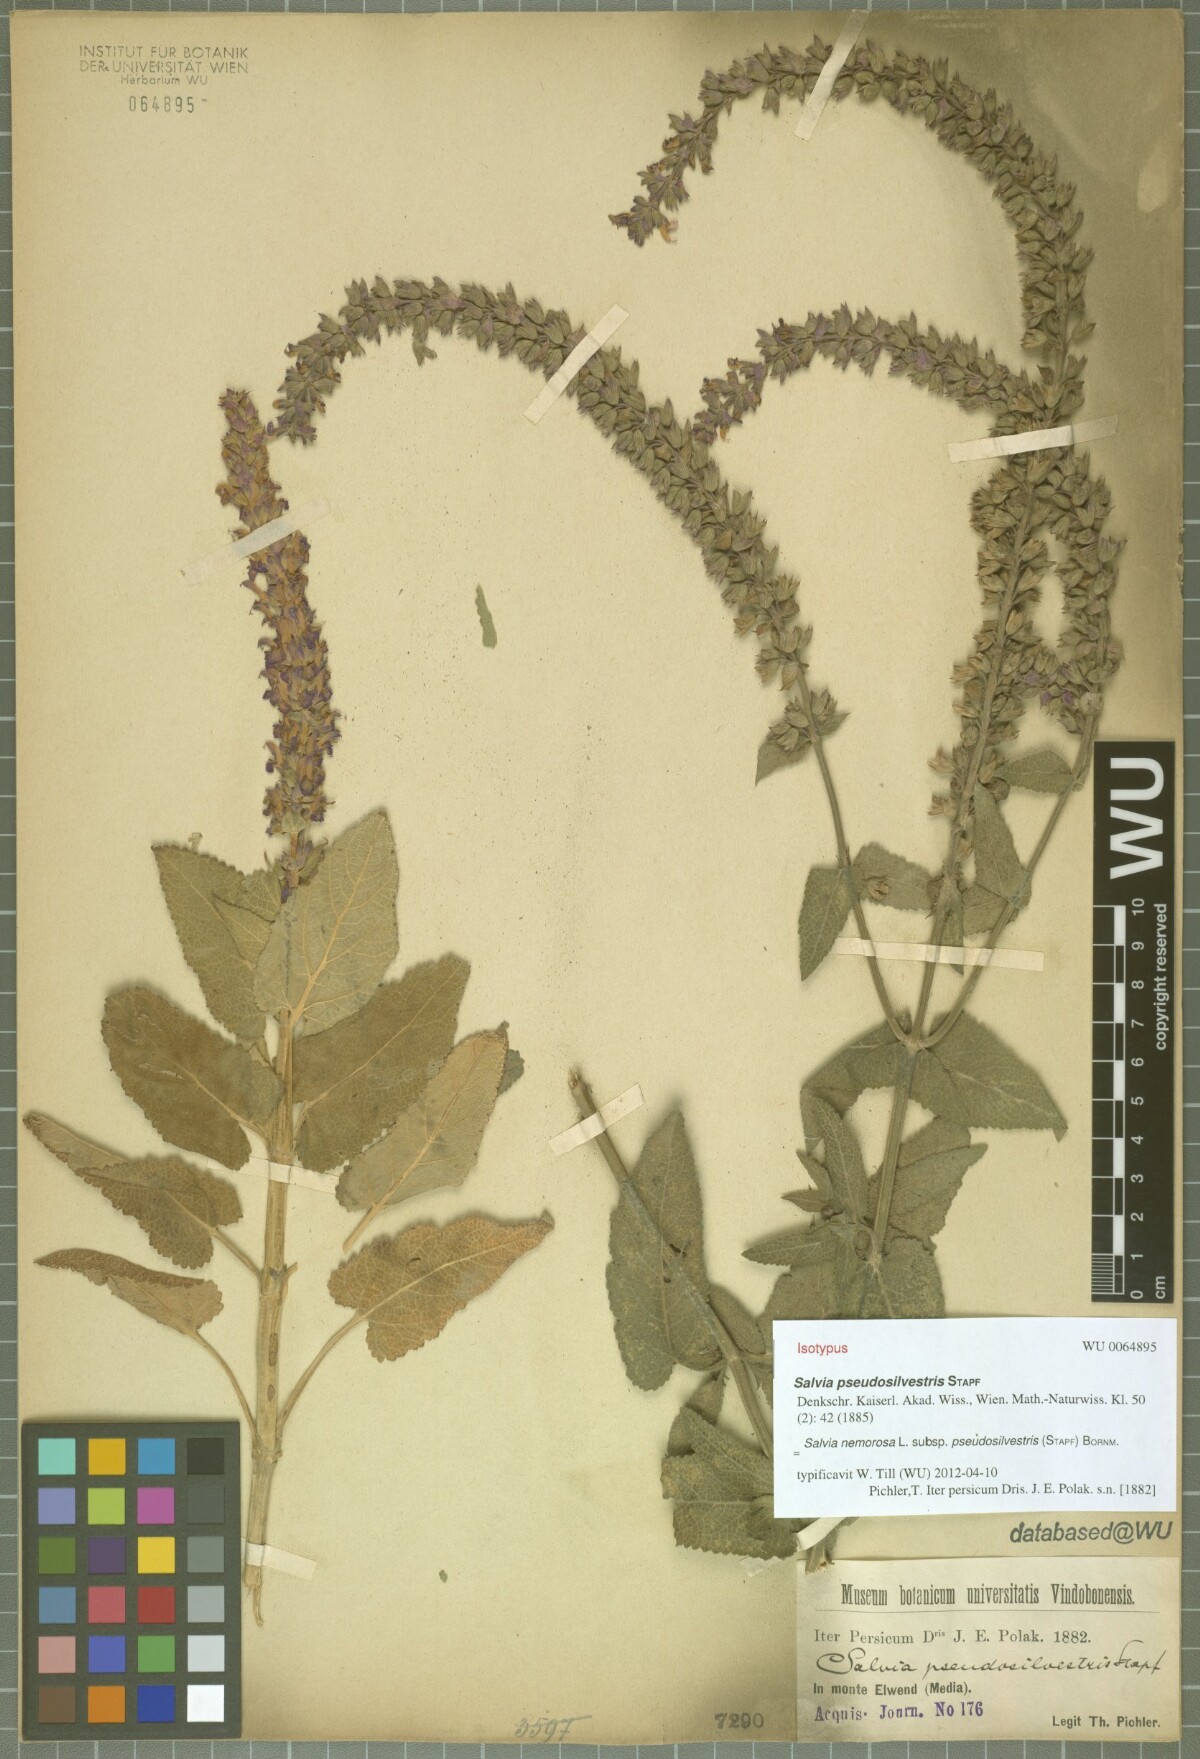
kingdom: Plantae
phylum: Tracheophyta
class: Magnoliopsida
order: Lamiales
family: Lamiaceae
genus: Salvia
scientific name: Salvia nemorosa
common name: Balkan clary
